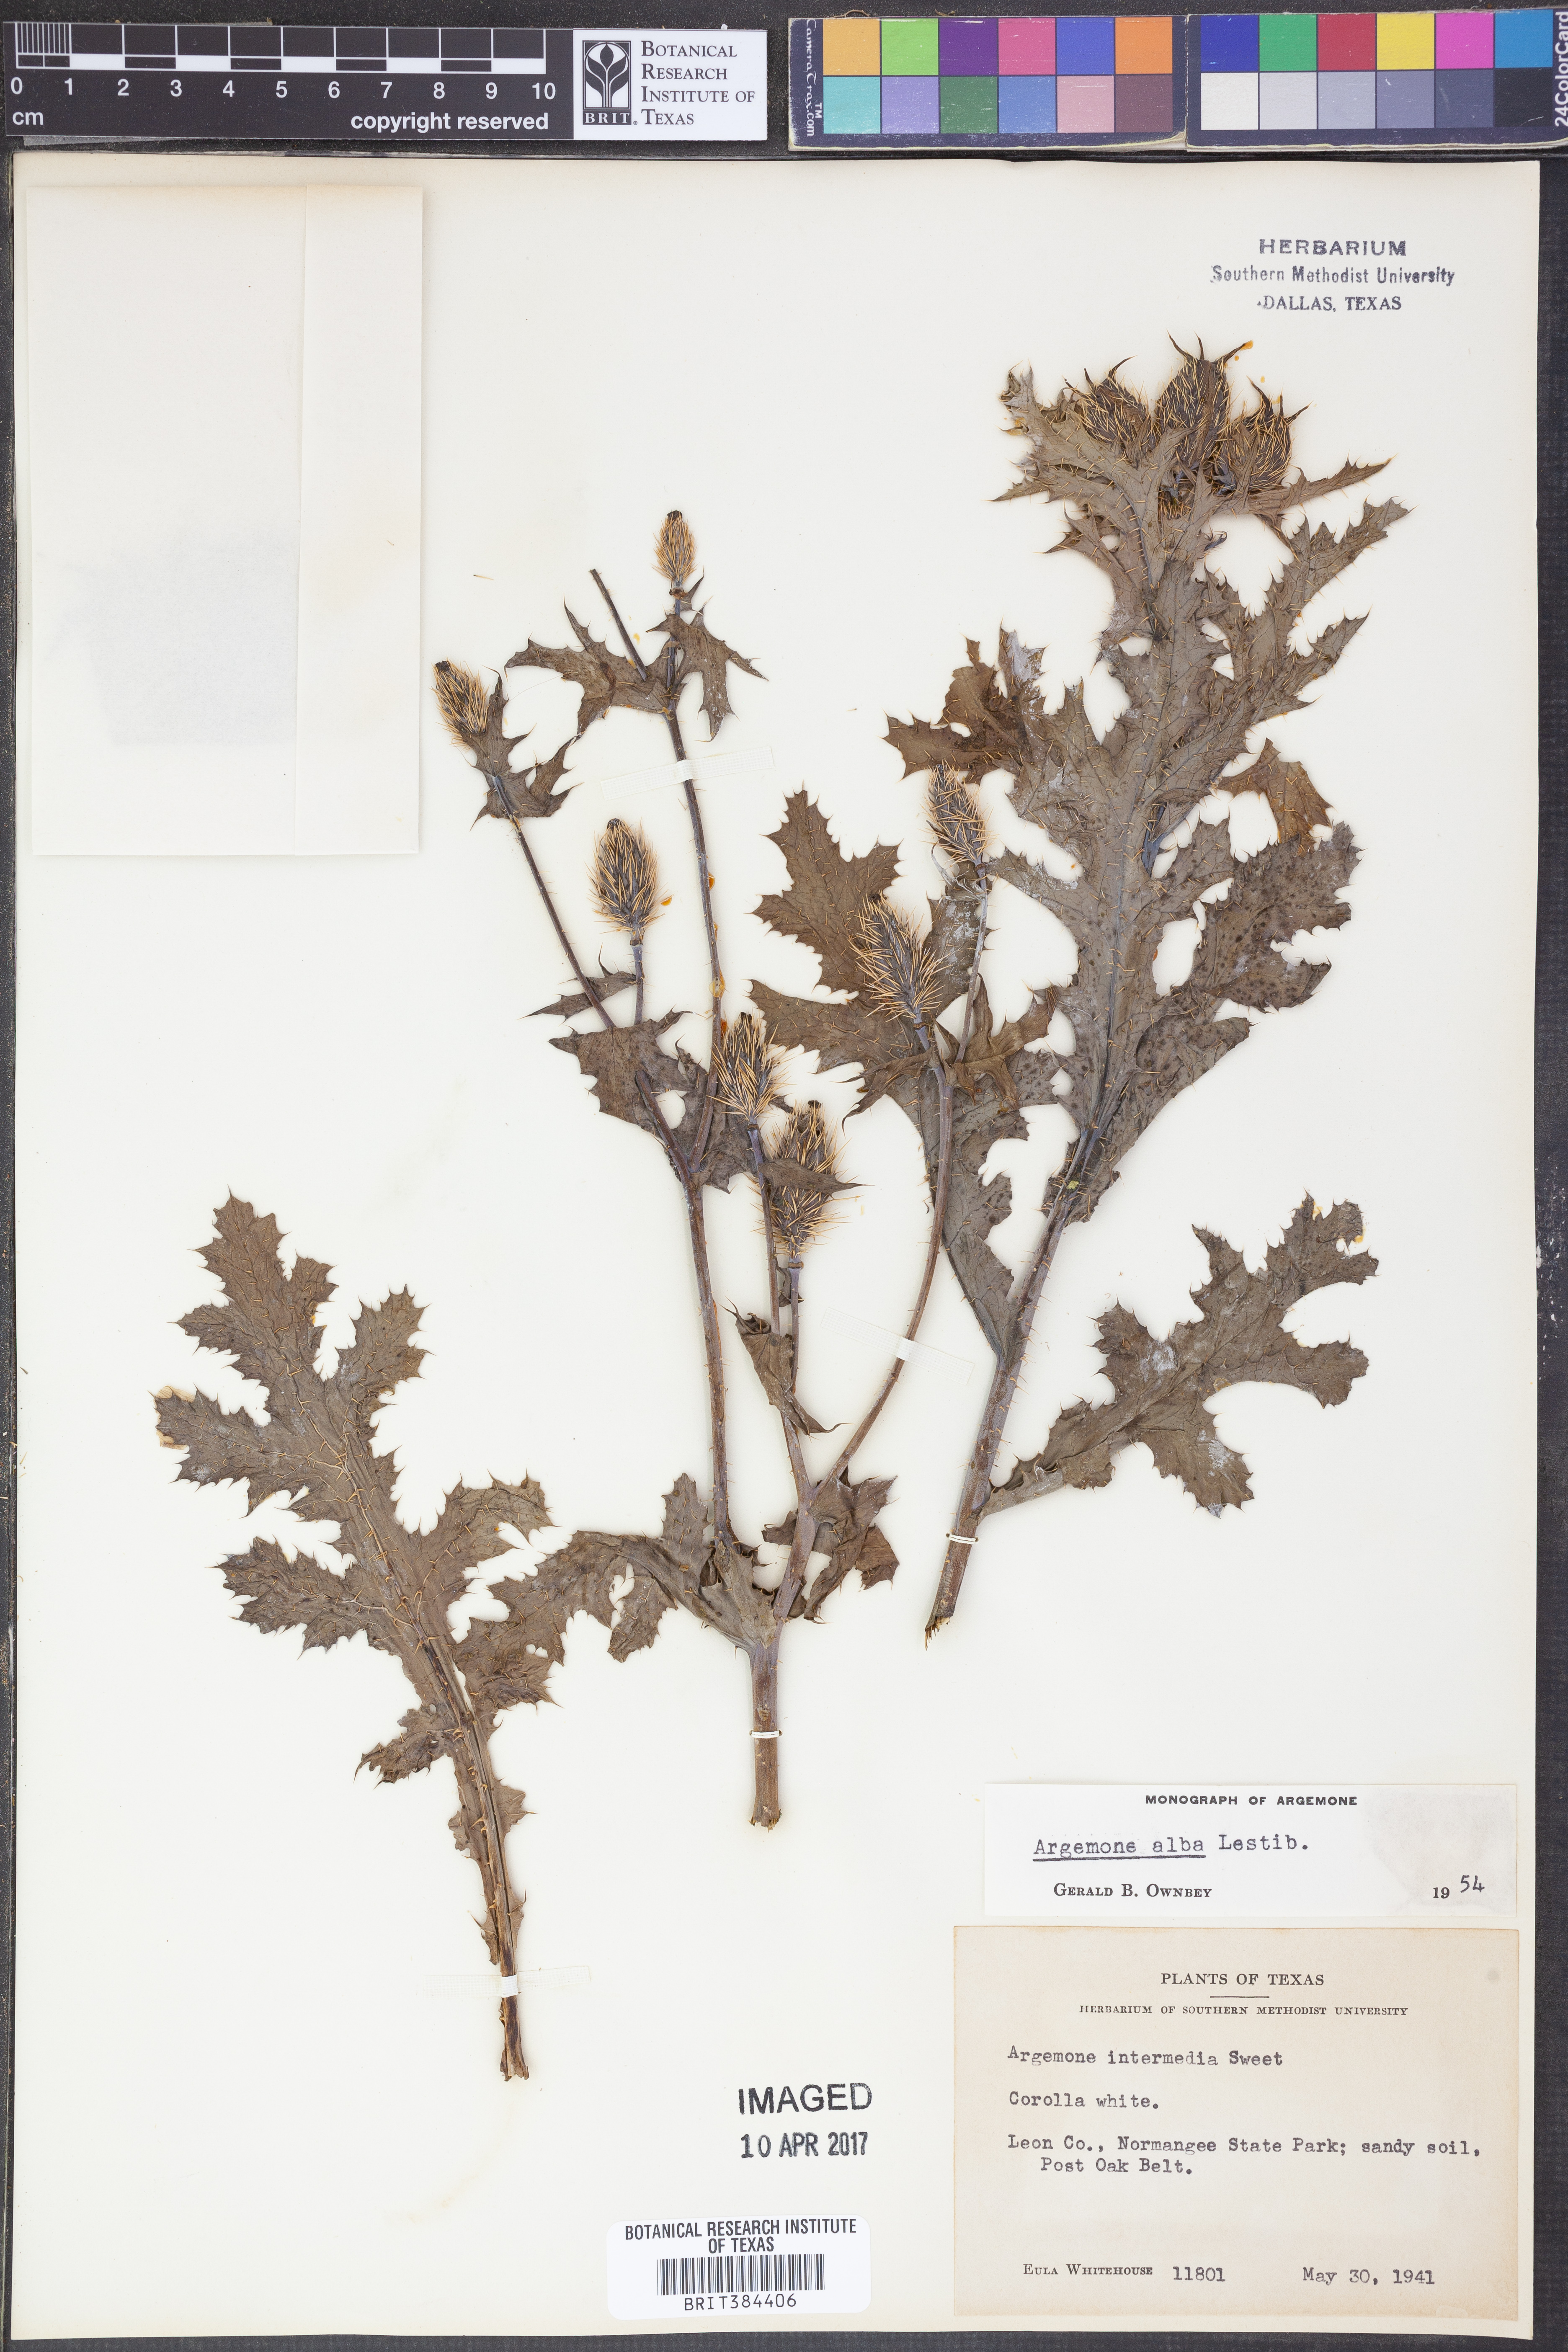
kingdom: Plantae
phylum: Tracheophyta
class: Magnoliopsida
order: Ranunculales
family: Papaveraceae
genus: Argemone
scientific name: Argemone albiflora
